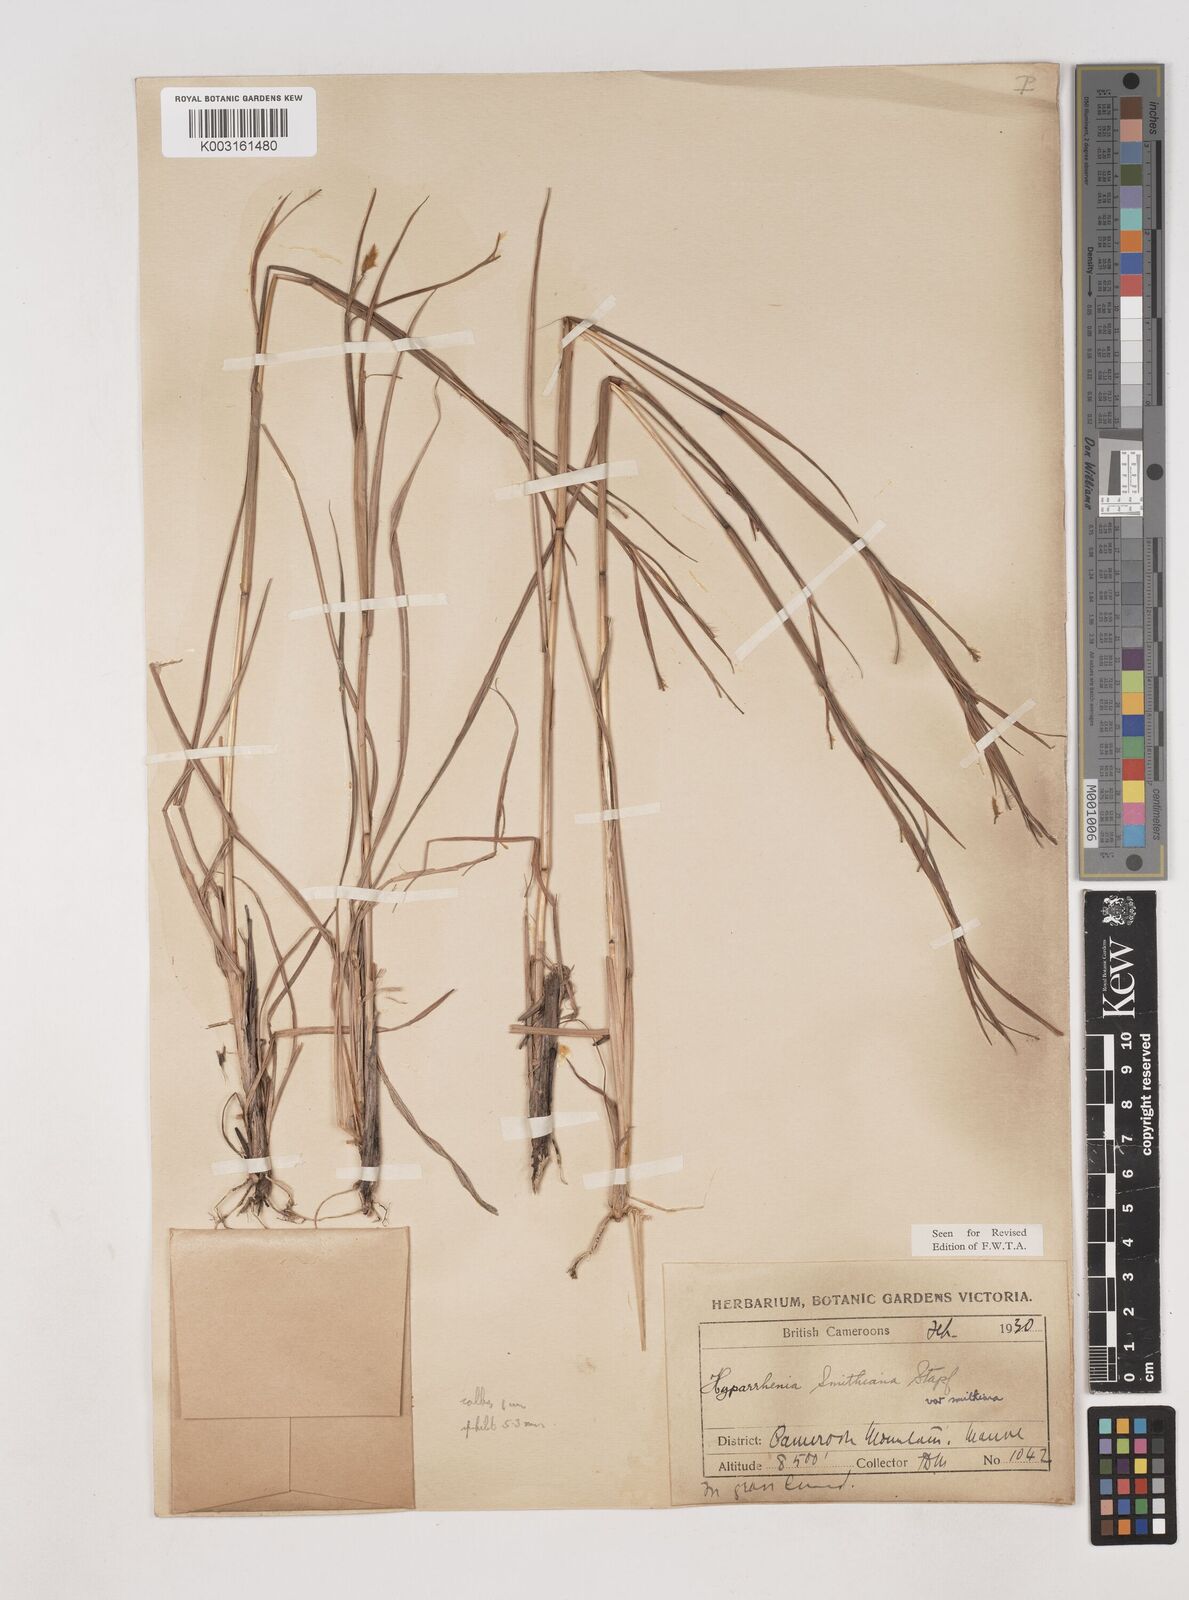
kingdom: Plantae
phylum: Tracheophyta
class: Liliopsida
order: Poales
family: Poaceae
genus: Hyparrhenia
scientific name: Hyparrhenia smithiana
